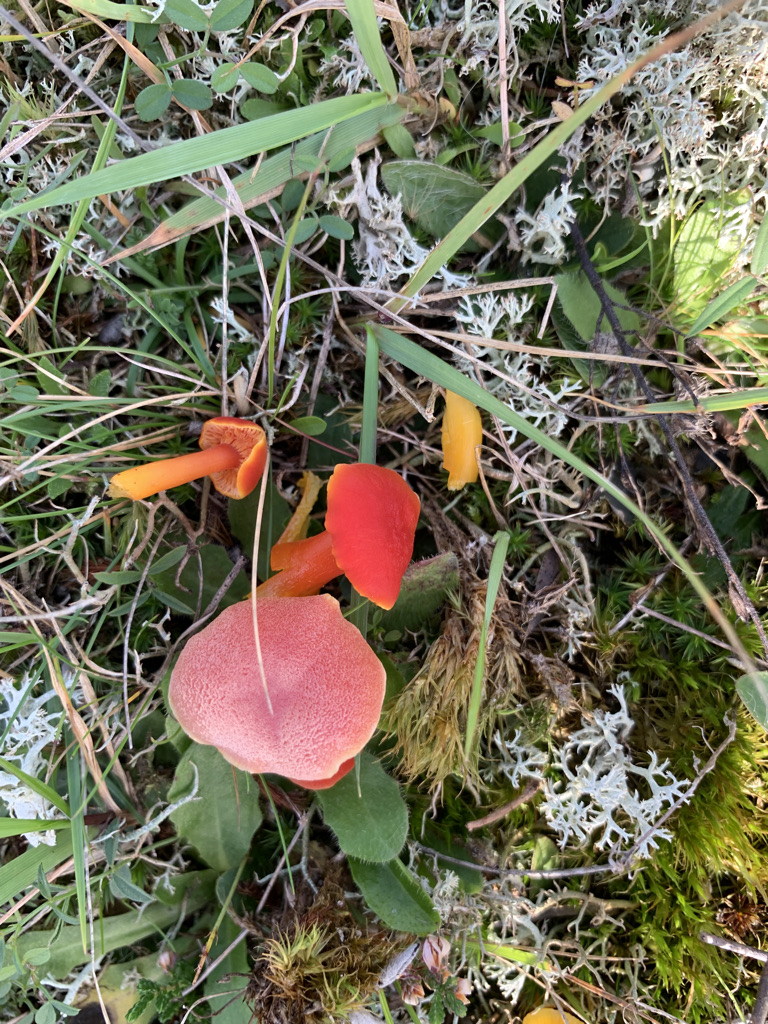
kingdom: Fungi
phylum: Basidiomycota
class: Agaricomycetes
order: Agaricales
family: Hygrophoraceae
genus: Hygrocybe
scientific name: Hygrocybe miniata
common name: mønje-vokshat
